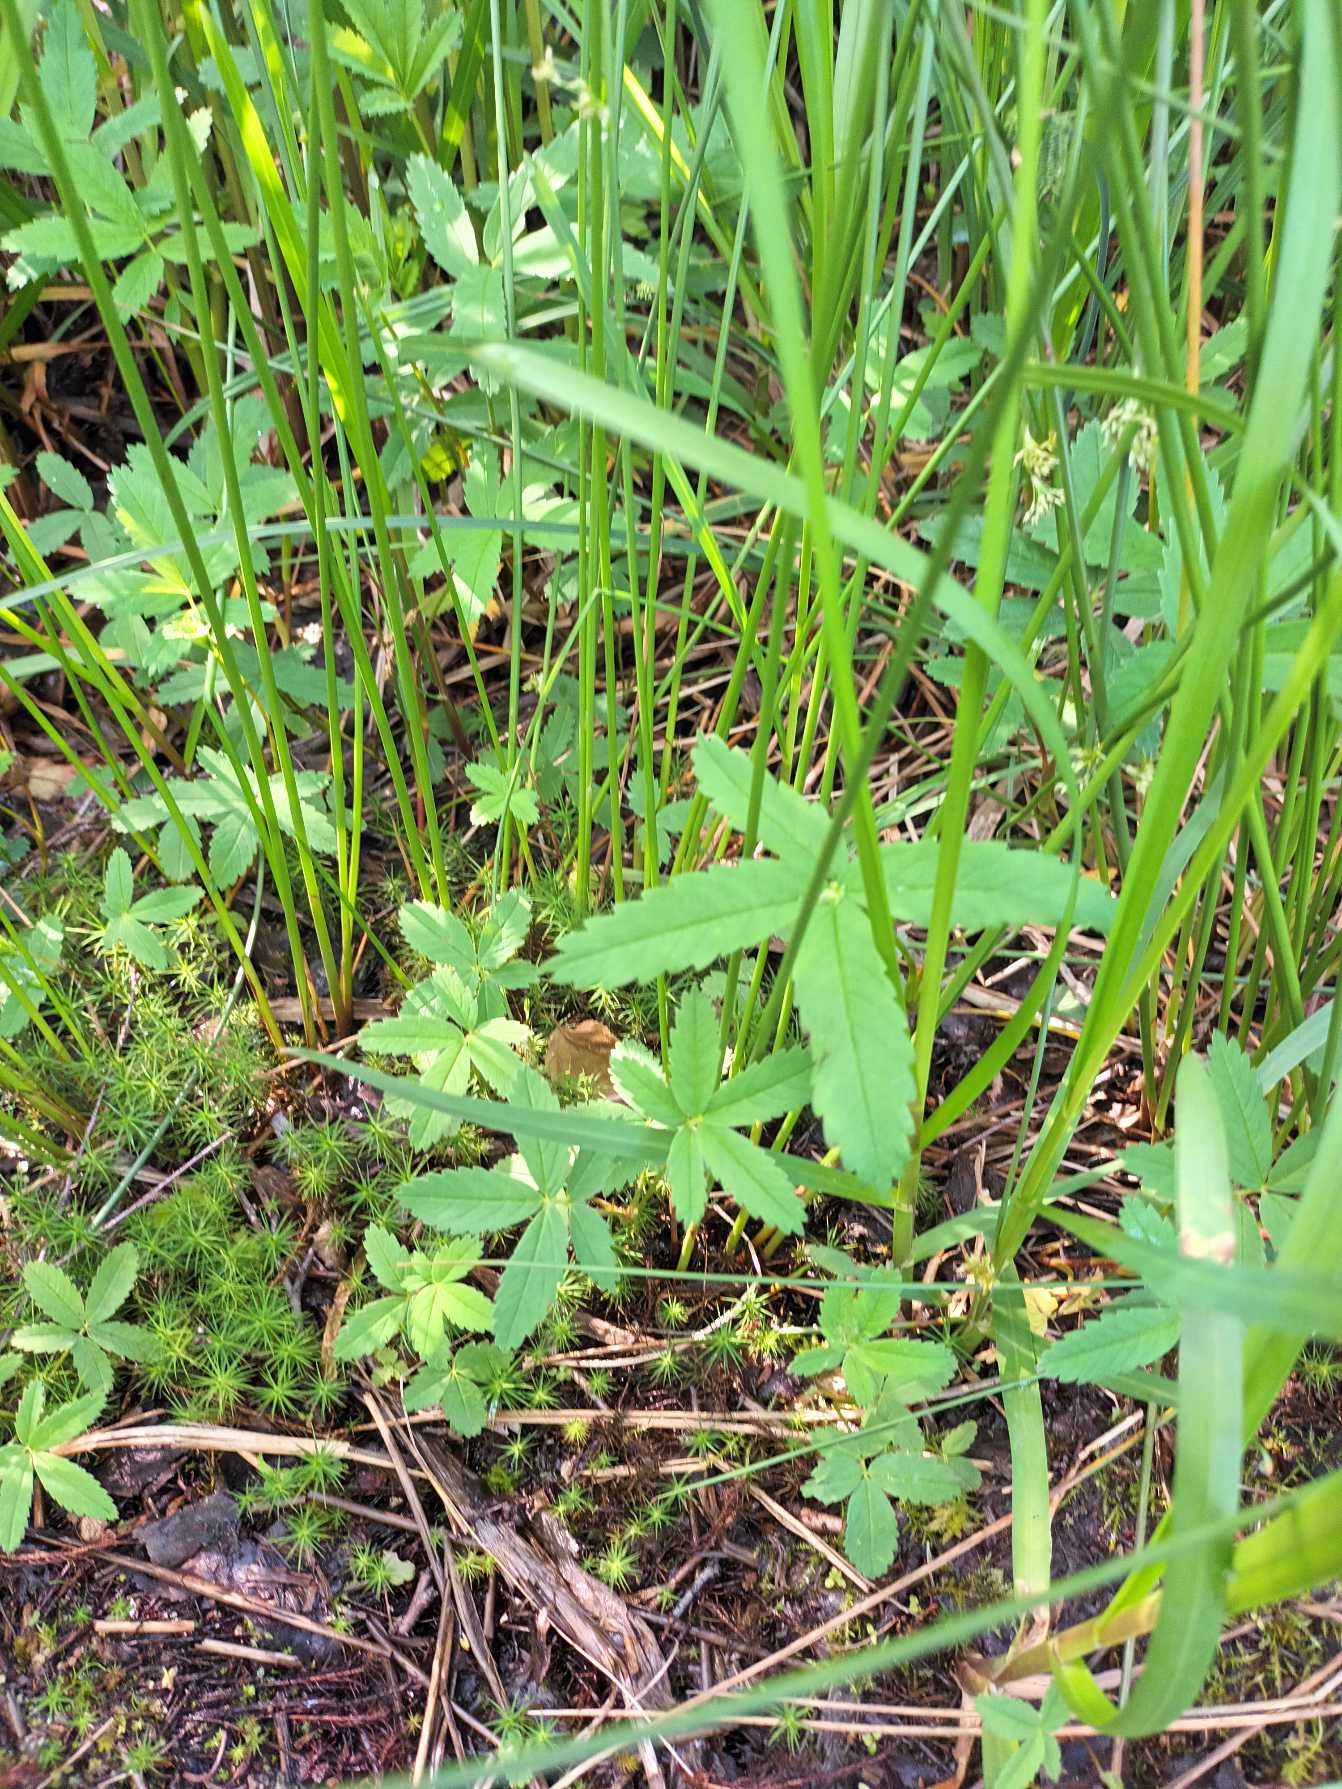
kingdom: Plantae
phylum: Tracheophyta
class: Magnoliopsida
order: Rosales
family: Rosaceae
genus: Comarum
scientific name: Comarum palustre
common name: Kragefod
